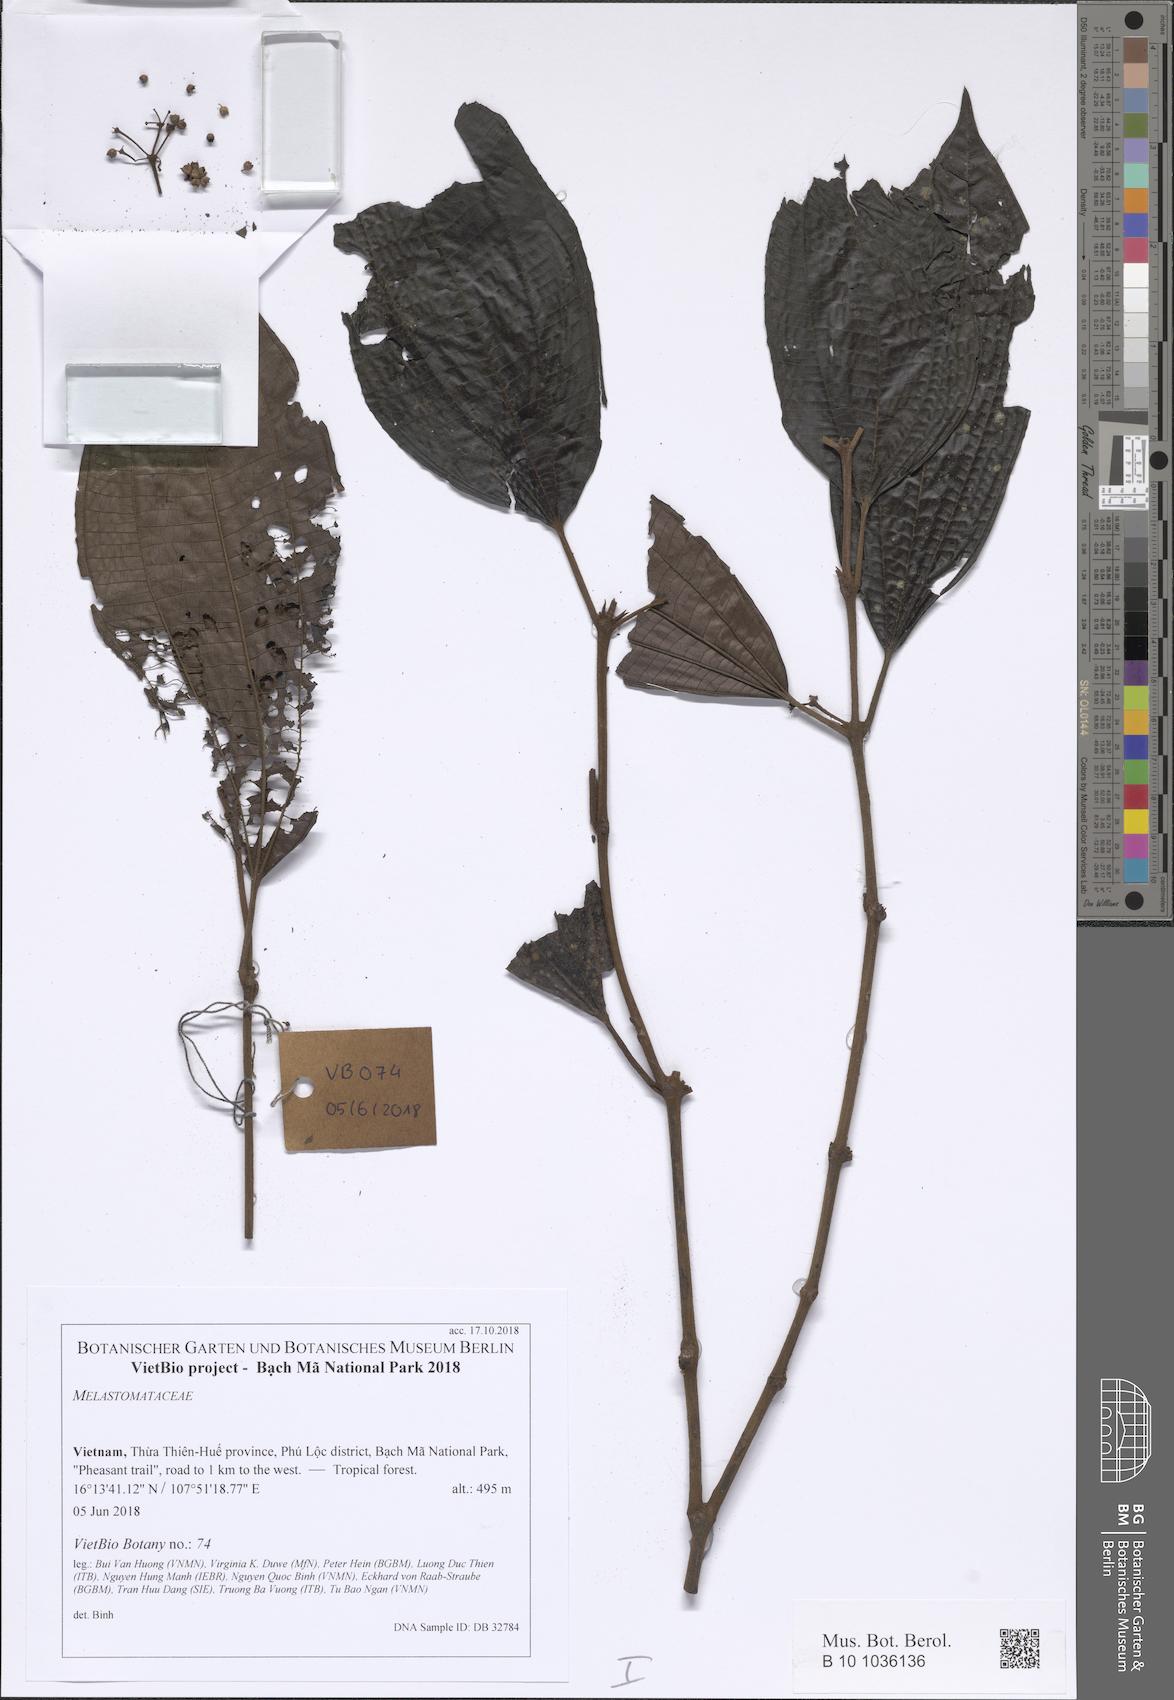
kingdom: Plantae
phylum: Tracheophyta
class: Magnoliopsida
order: Myrtales
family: Melastomataceae
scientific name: Melastomataceae
